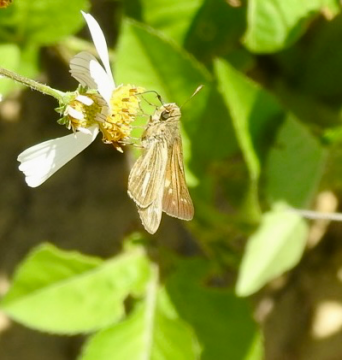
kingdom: Animalia
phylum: Arthropoda
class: Insecta
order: Lepidoptera
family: Hesperiidae
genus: Panoquina
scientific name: Panoquina panoquin
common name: Salt Marsh Skipper
